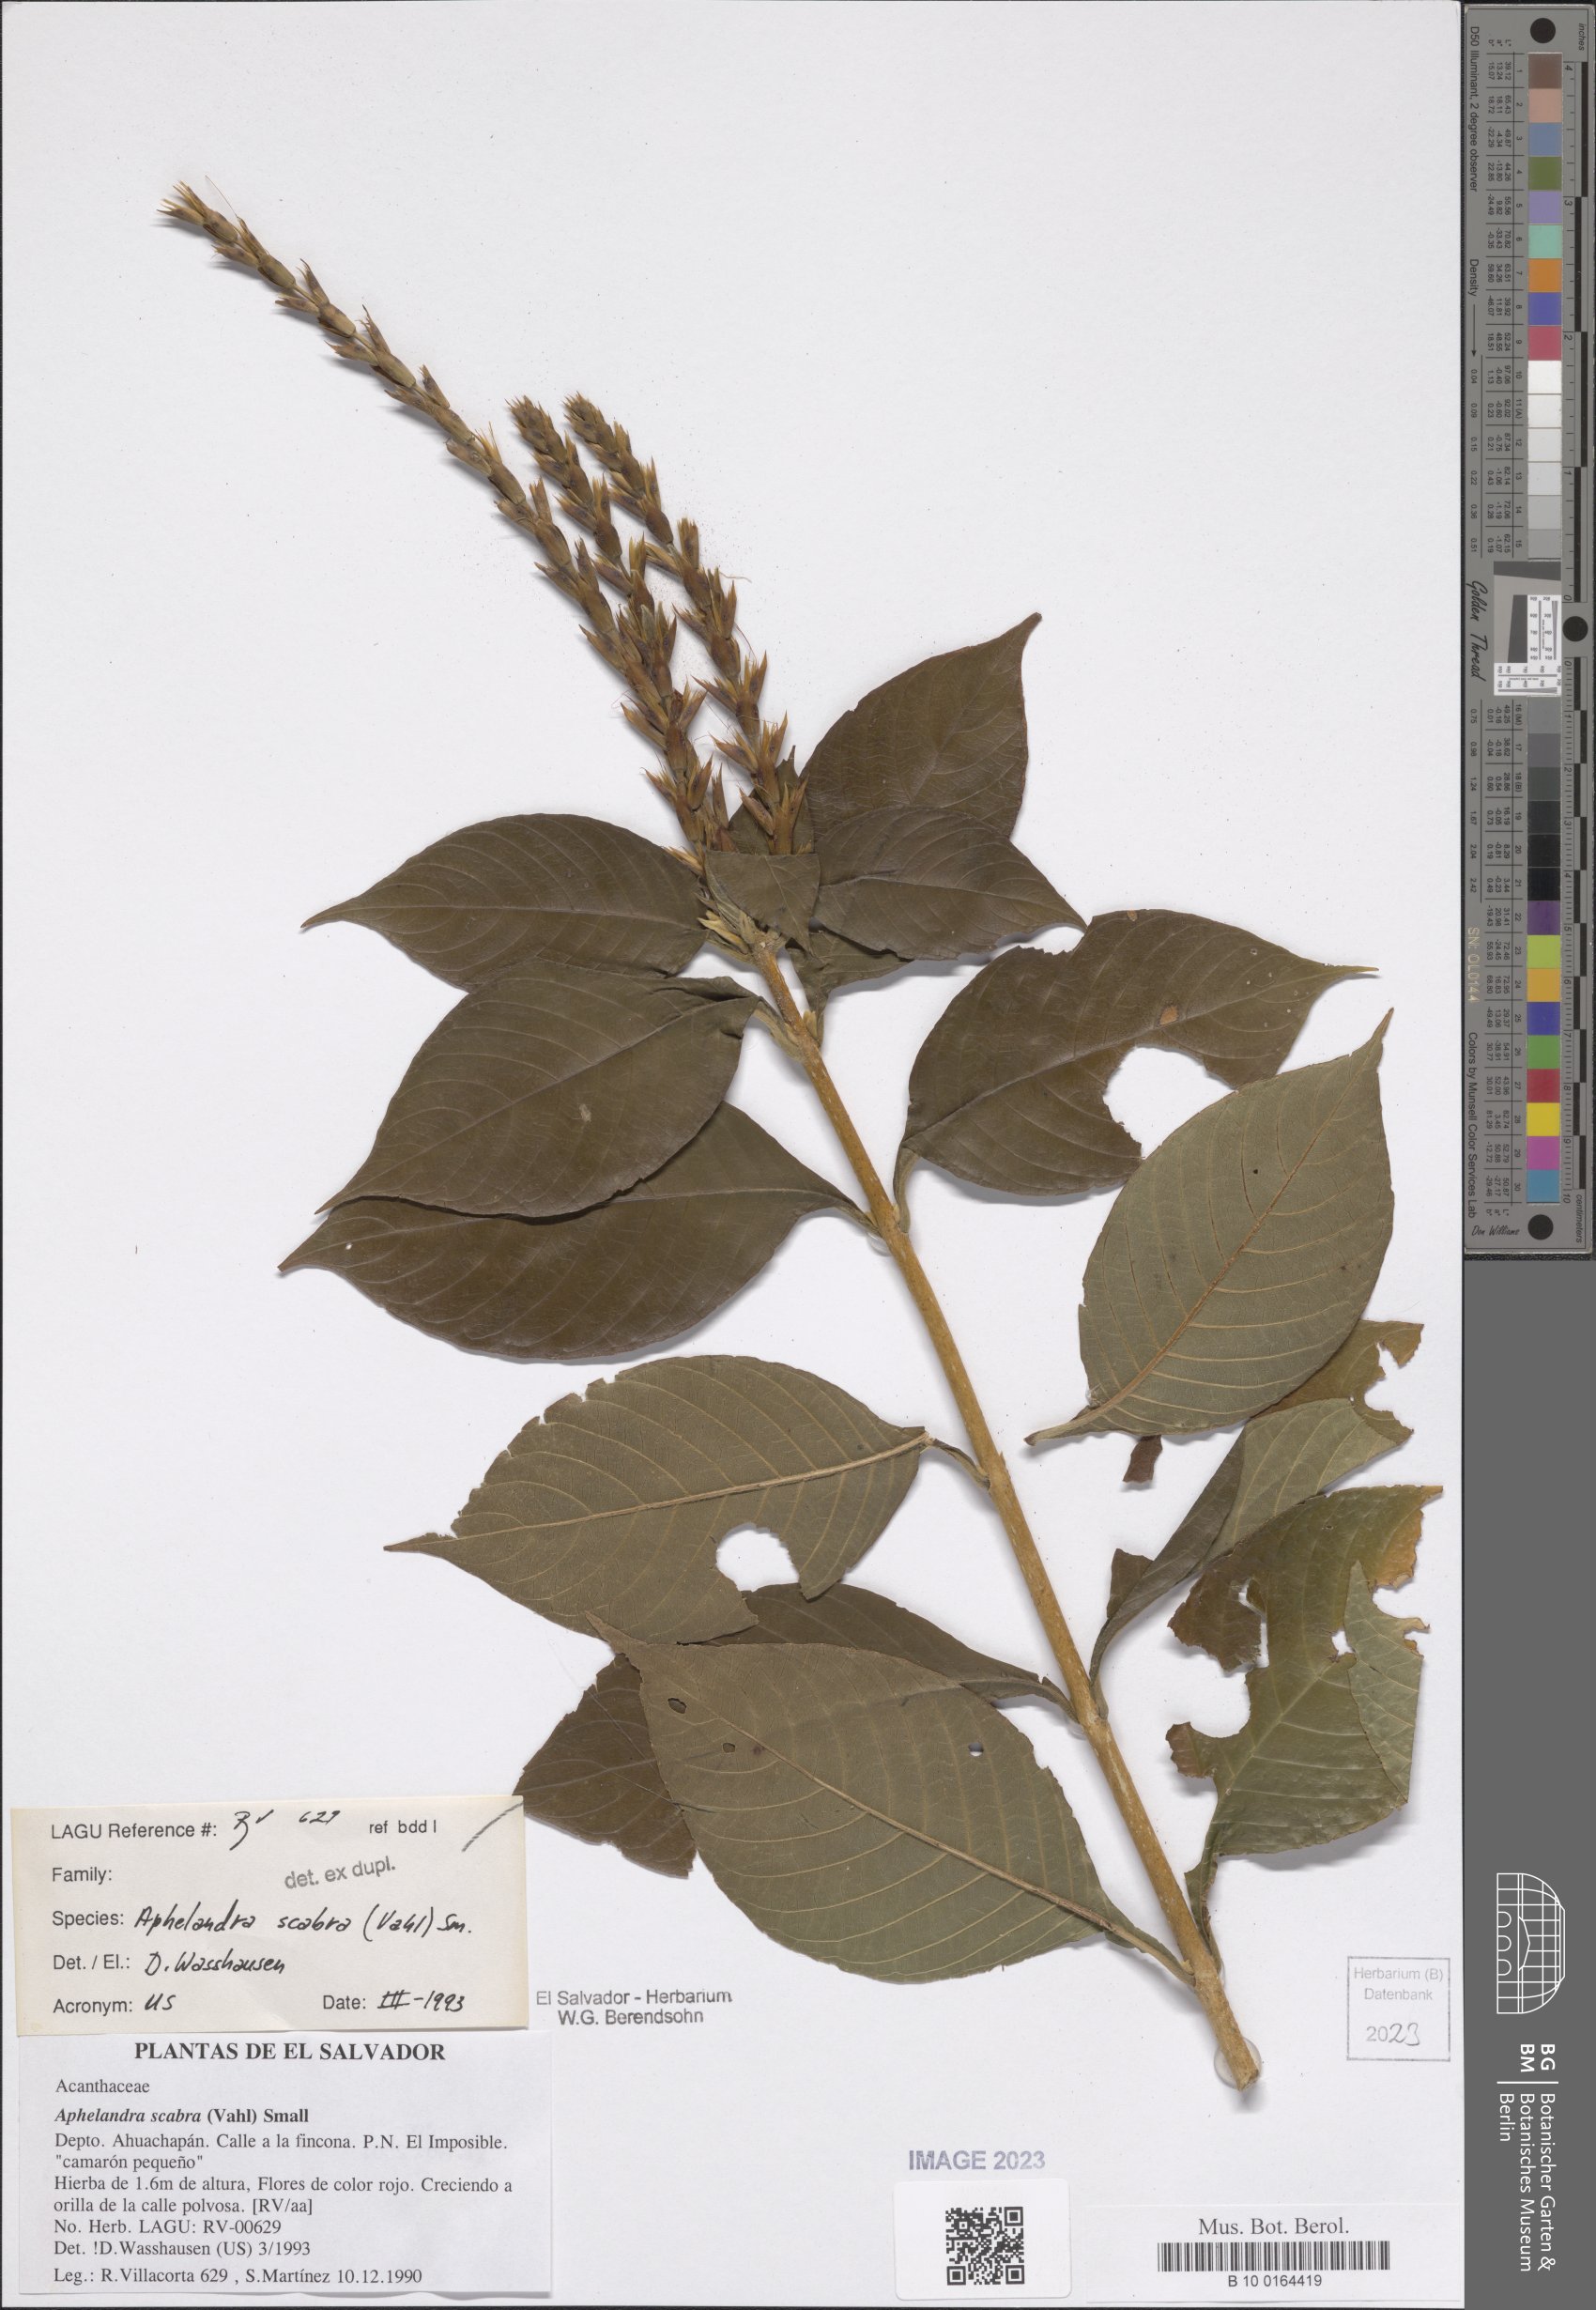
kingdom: Plantae
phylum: Tracheophyta
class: Magnoliopsida
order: Lamiales
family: Acanthaceae
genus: Aphelandra
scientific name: Aphelandra scabra
